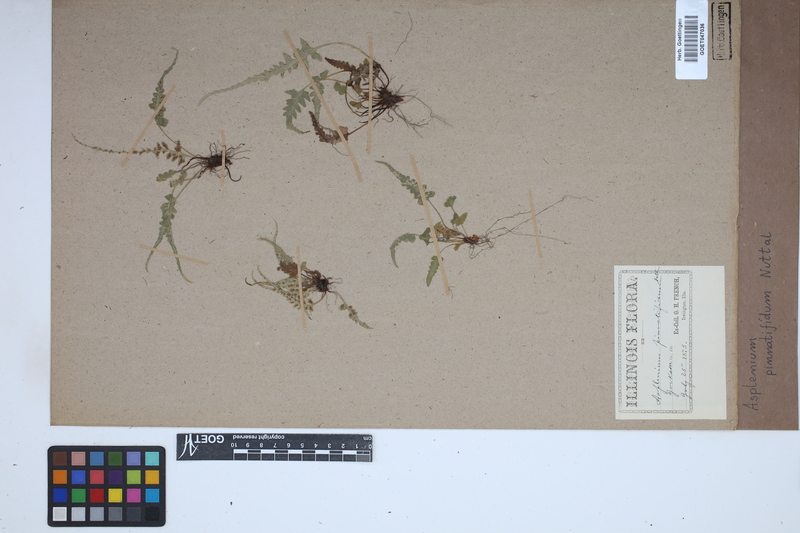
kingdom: Plantae
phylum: Tracheophyta
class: Polypodiopsida
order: Polypodiales
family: Aspleniaceae
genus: Asplenium
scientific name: Asplenium pinnatifidum
